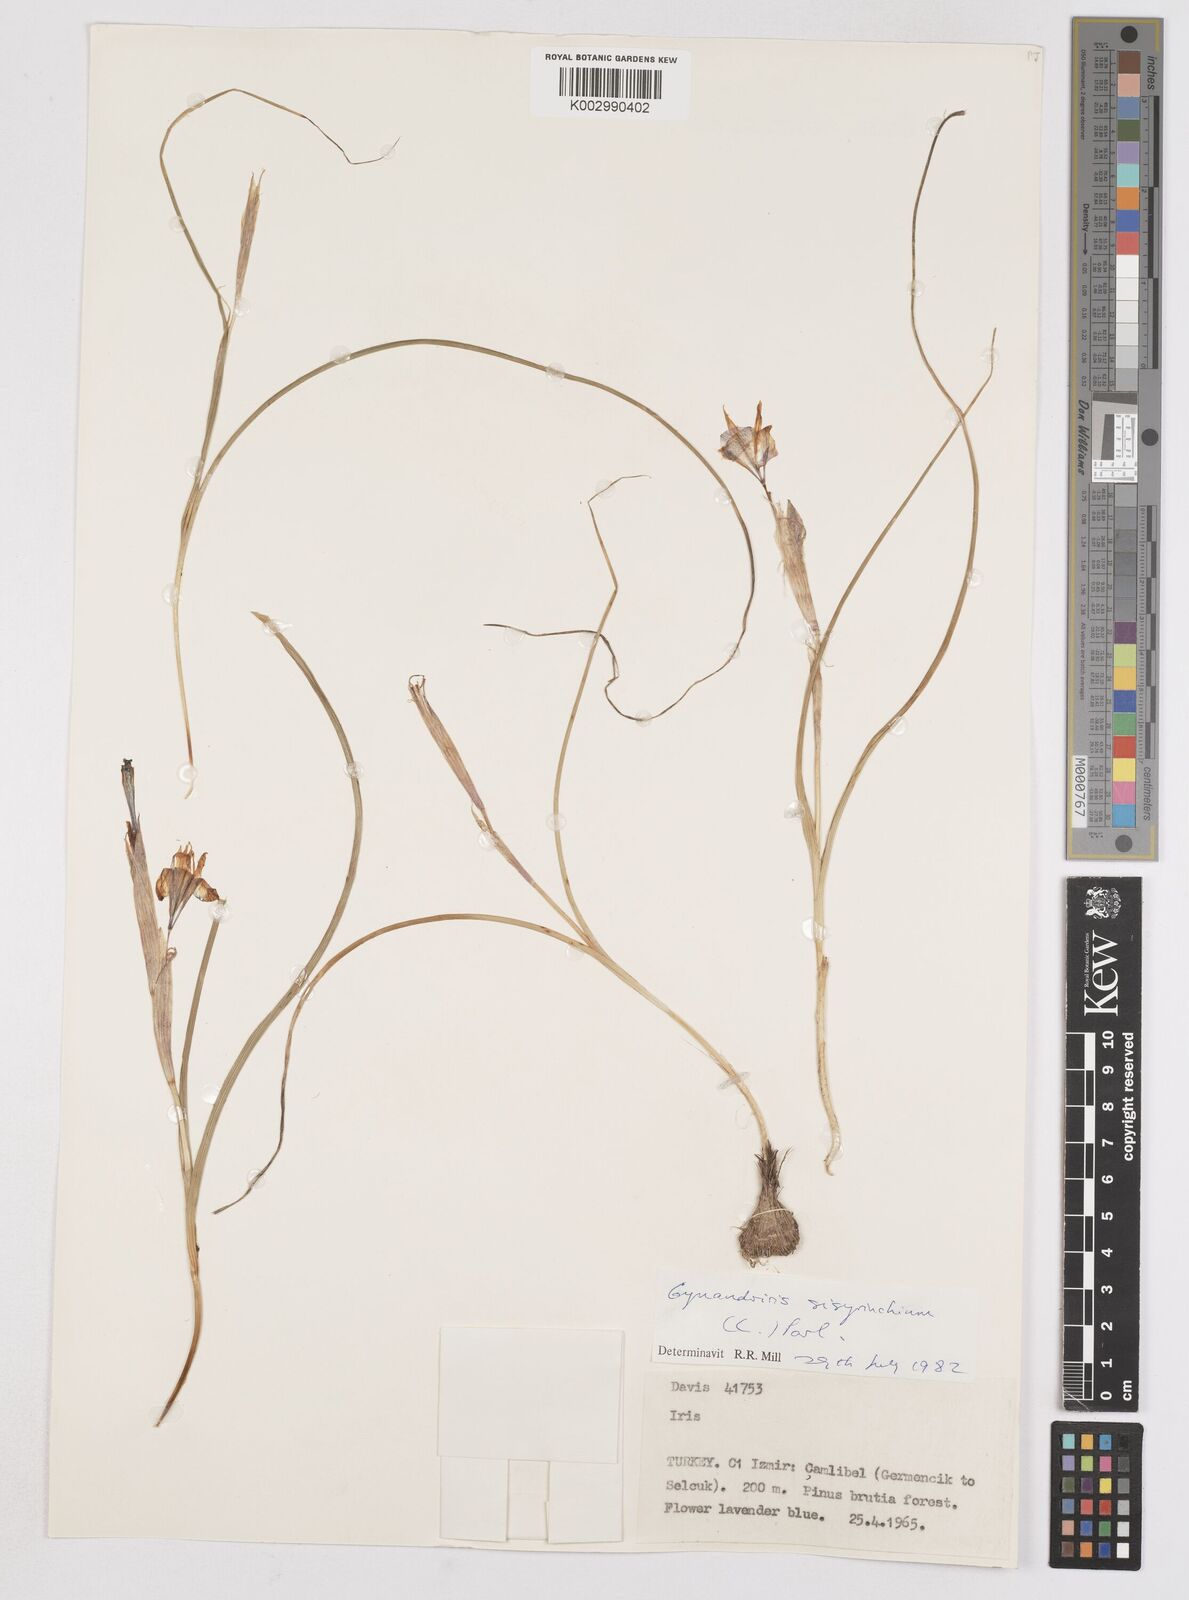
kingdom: Plantae
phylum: Tracheophyta
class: Liliopsida
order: Asparagales
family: Iridaceae
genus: Moraea
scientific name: Moraea sisyrinchium
